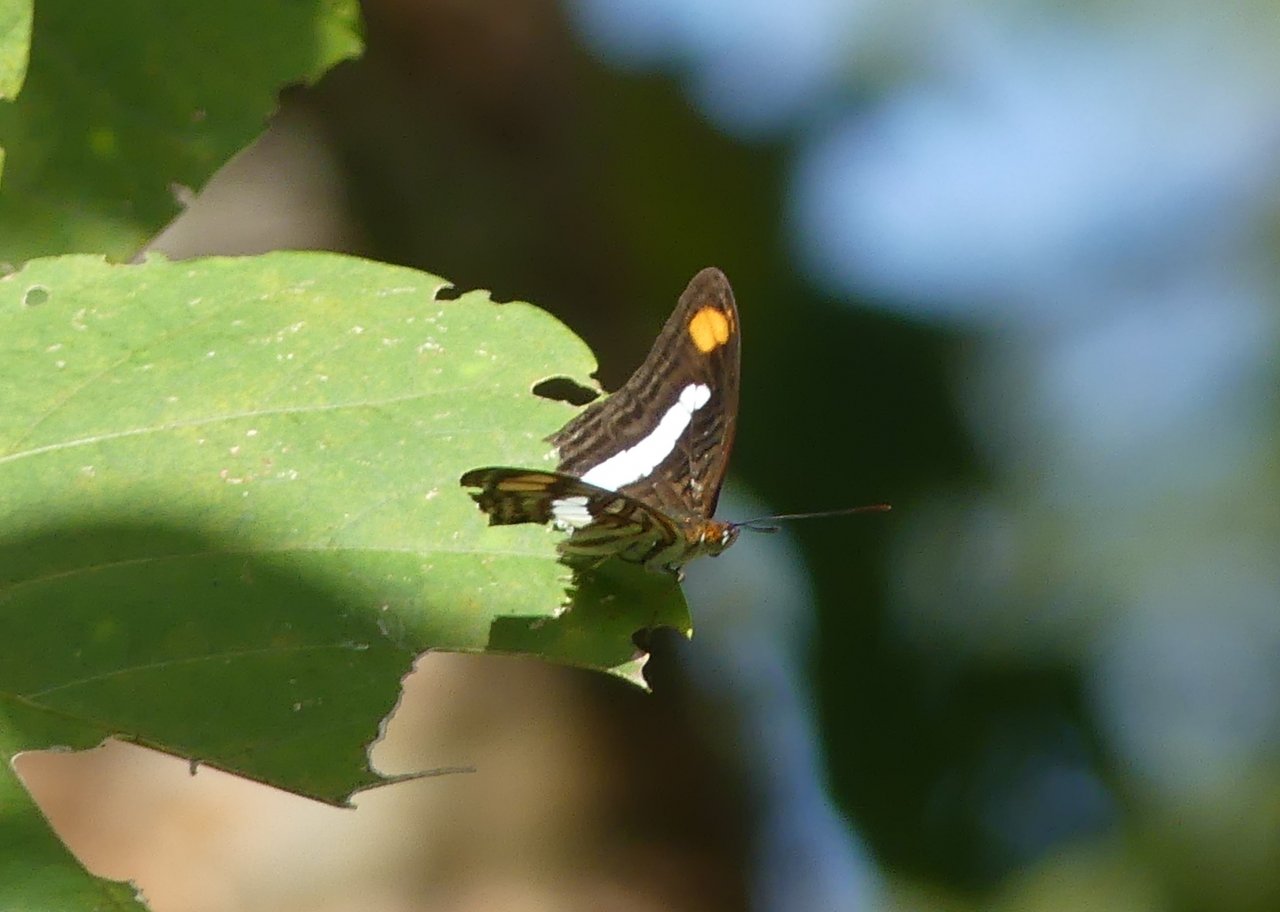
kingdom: Animalia
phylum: Arthropoda
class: Insecta
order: Lepidoptera
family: Nymphalidae
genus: Limenitis
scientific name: Limenitis Adelpha basiloides
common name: Spot-celled Sister
